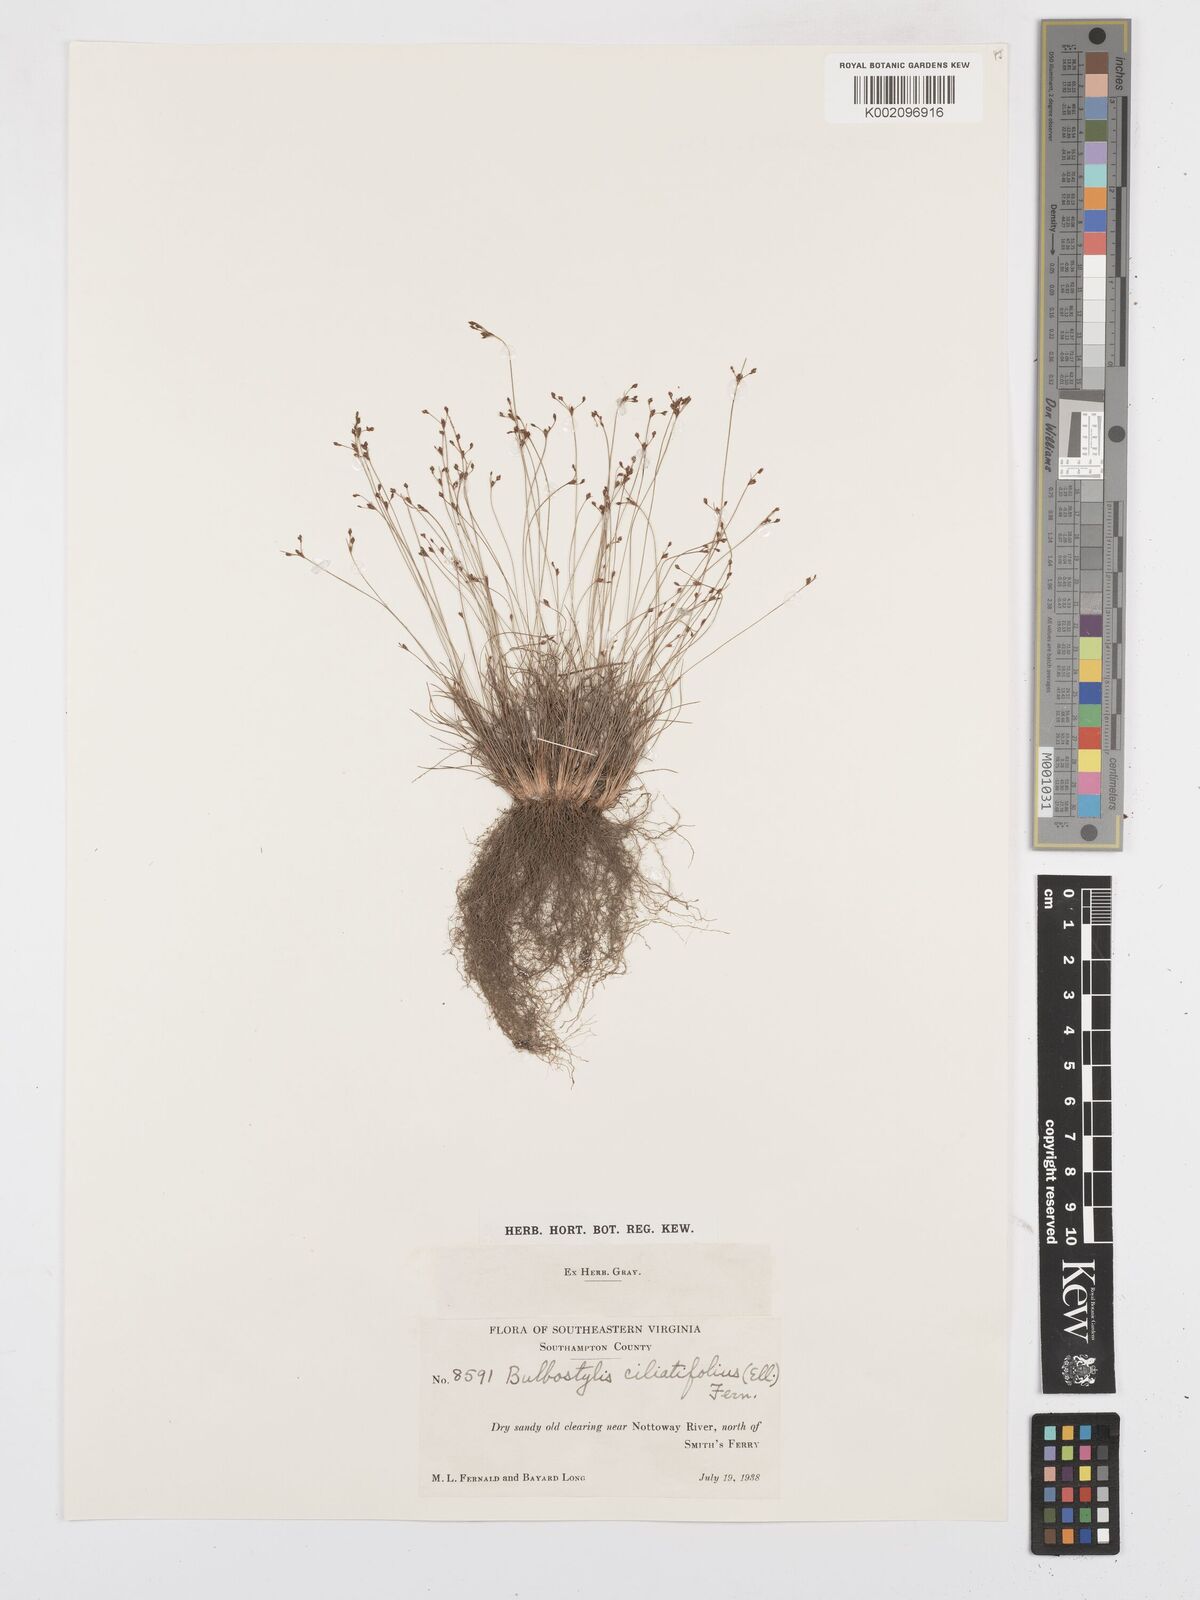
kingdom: Plantae
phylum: Tracheophyta
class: Liliopsida
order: Poales
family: Cyperaceae
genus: Bulbostylis
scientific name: Bulbostylis ciliatifolia
